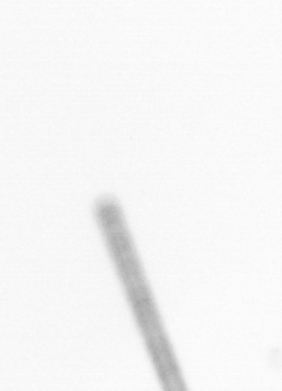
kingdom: Chromista
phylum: Ochrophyta
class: Bacillariophyceae
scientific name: Bacillariophyceae
